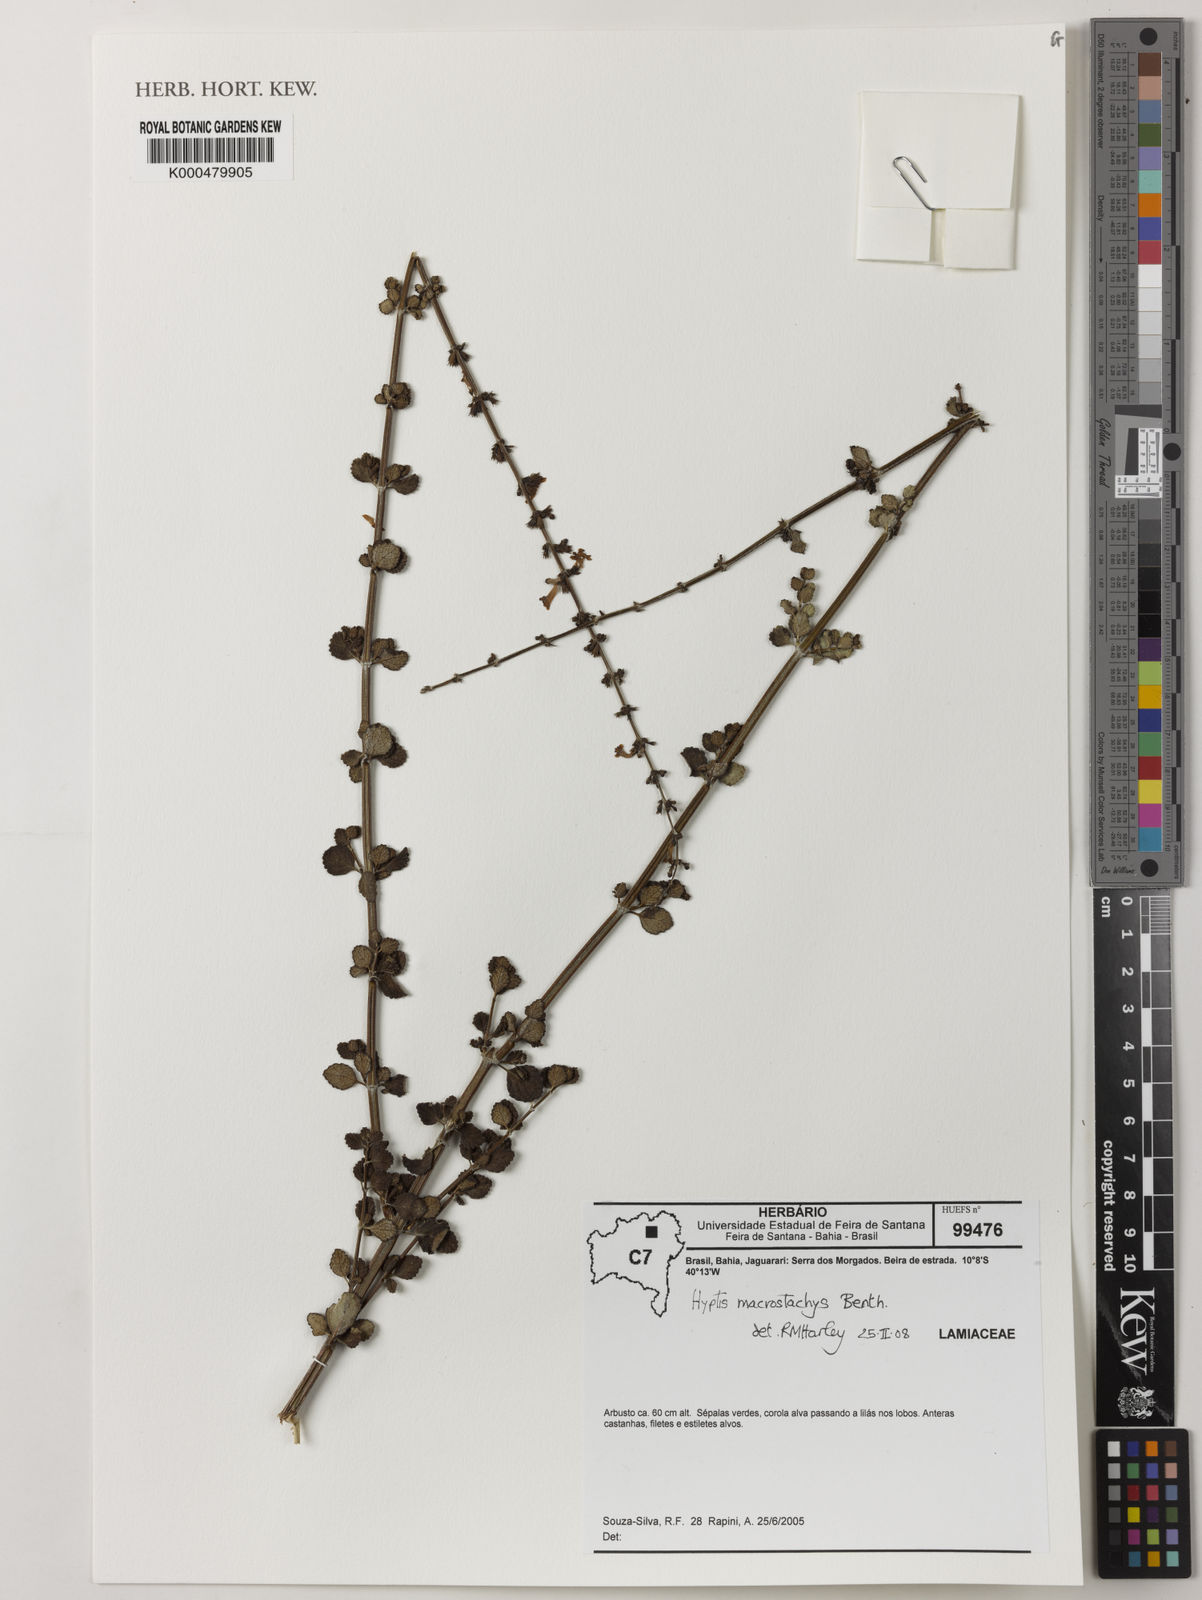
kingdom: Plantae
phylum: Tracheophyta
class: Magnoliopsida
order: Lamiales
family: Lamiaceae
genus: Leptohyptis
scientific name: Leptohyptis macrostachys
